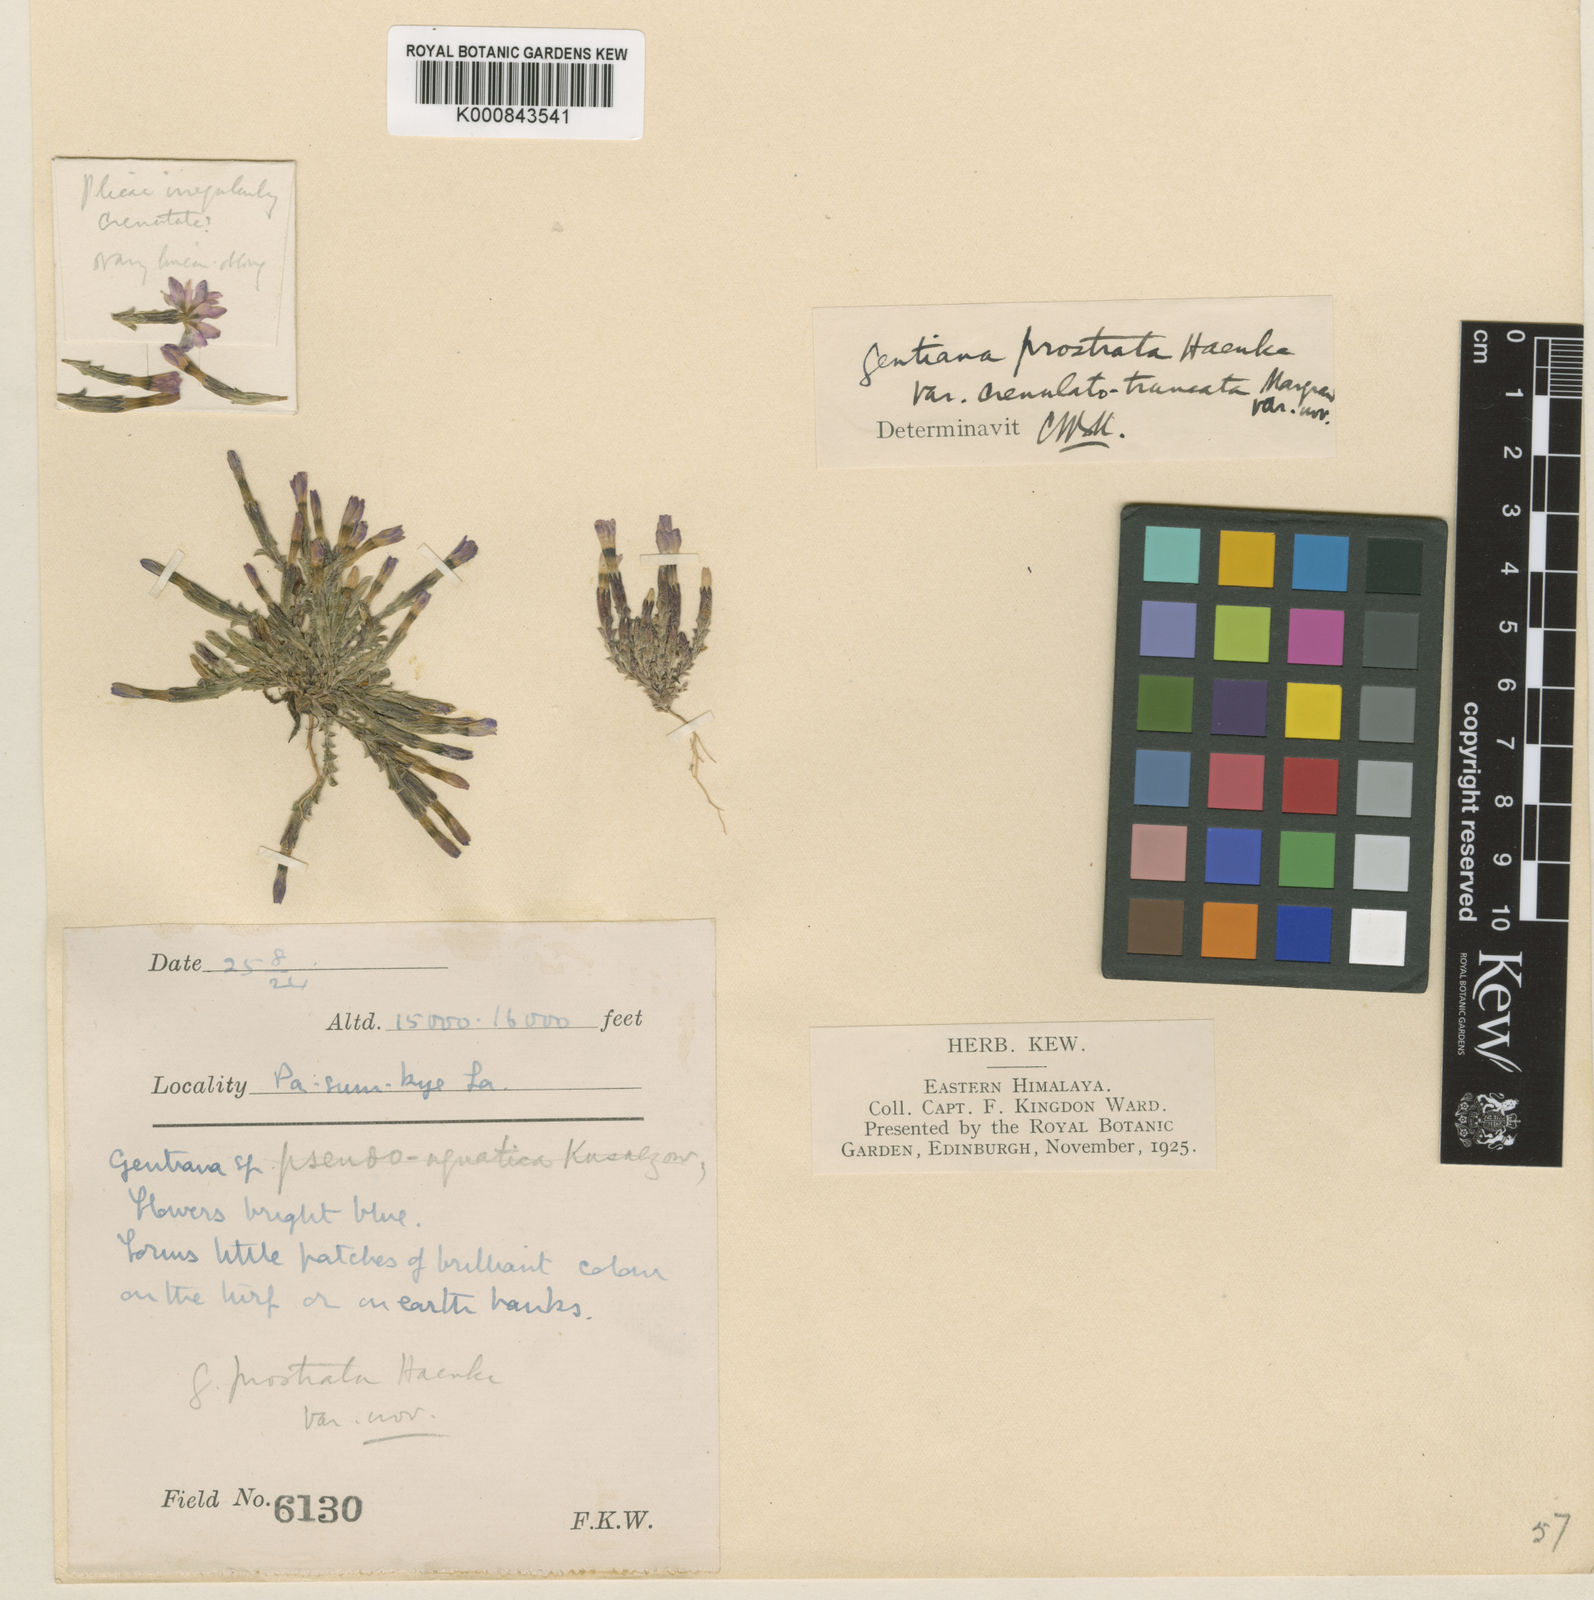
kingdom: Plantae
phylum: Tracheophyta
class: Magnoliopsida
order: Gentianales
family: Gentianaceae
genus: Gentiana
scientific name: Gentiana
